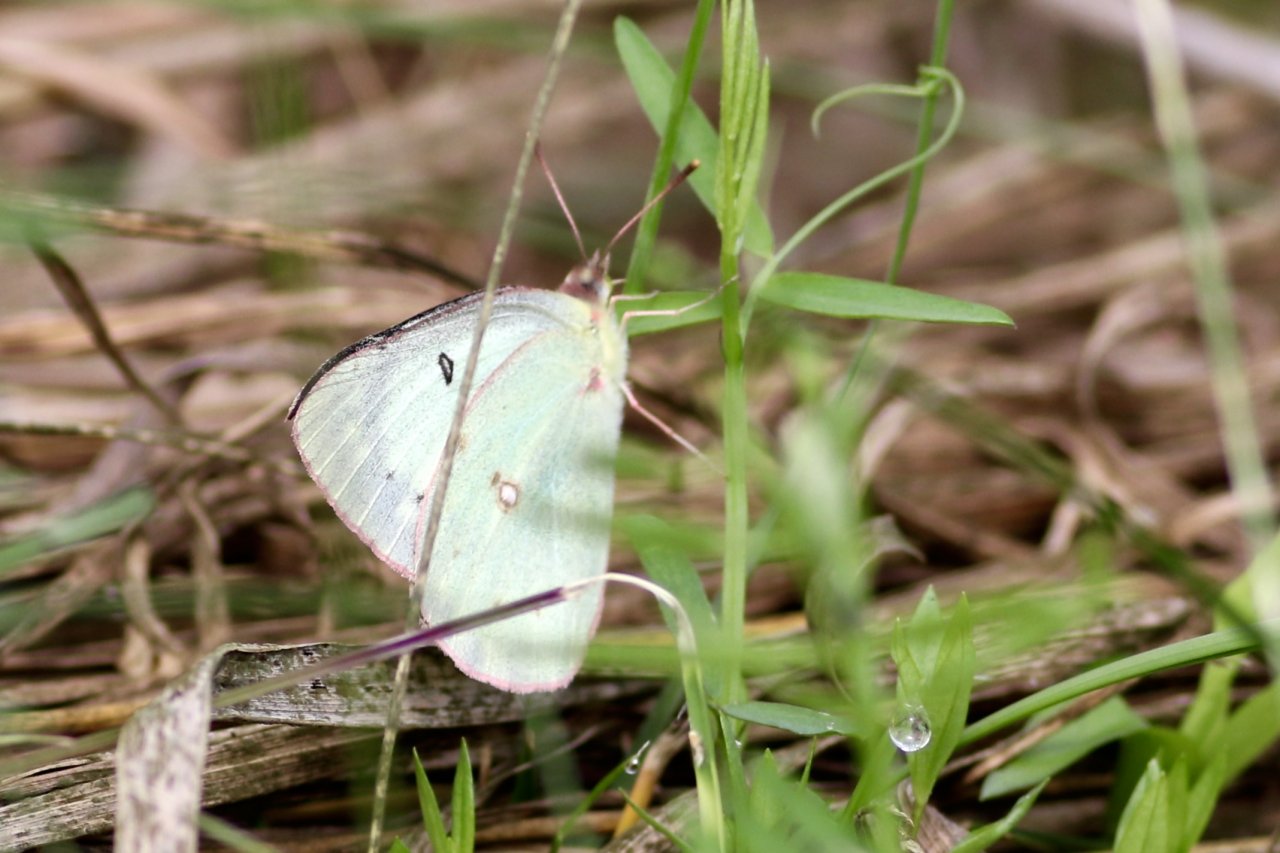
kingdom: Animalia
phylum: Arthropoda
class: Insecta
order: Lepidoptera
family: Pieridae
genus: Colias
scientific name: Colias philodice
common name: Clouded Sulphur
